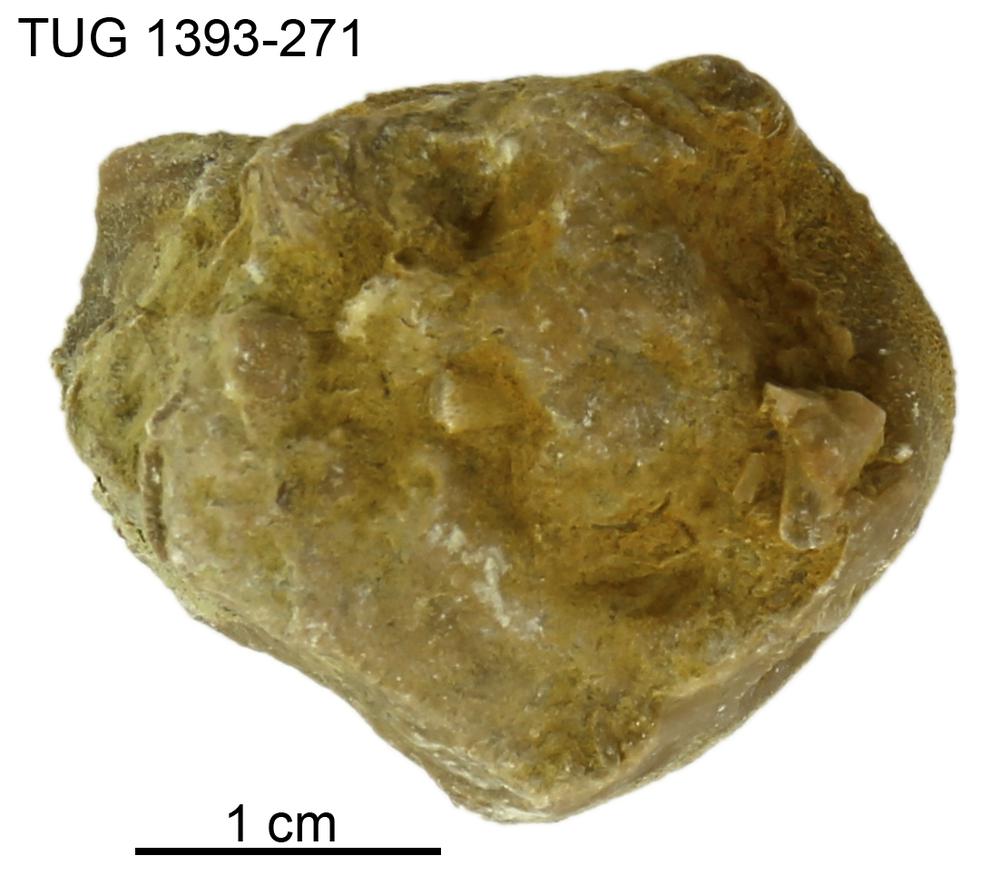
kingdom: Animalia
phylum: Bryozoa
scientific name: Bryozoa
